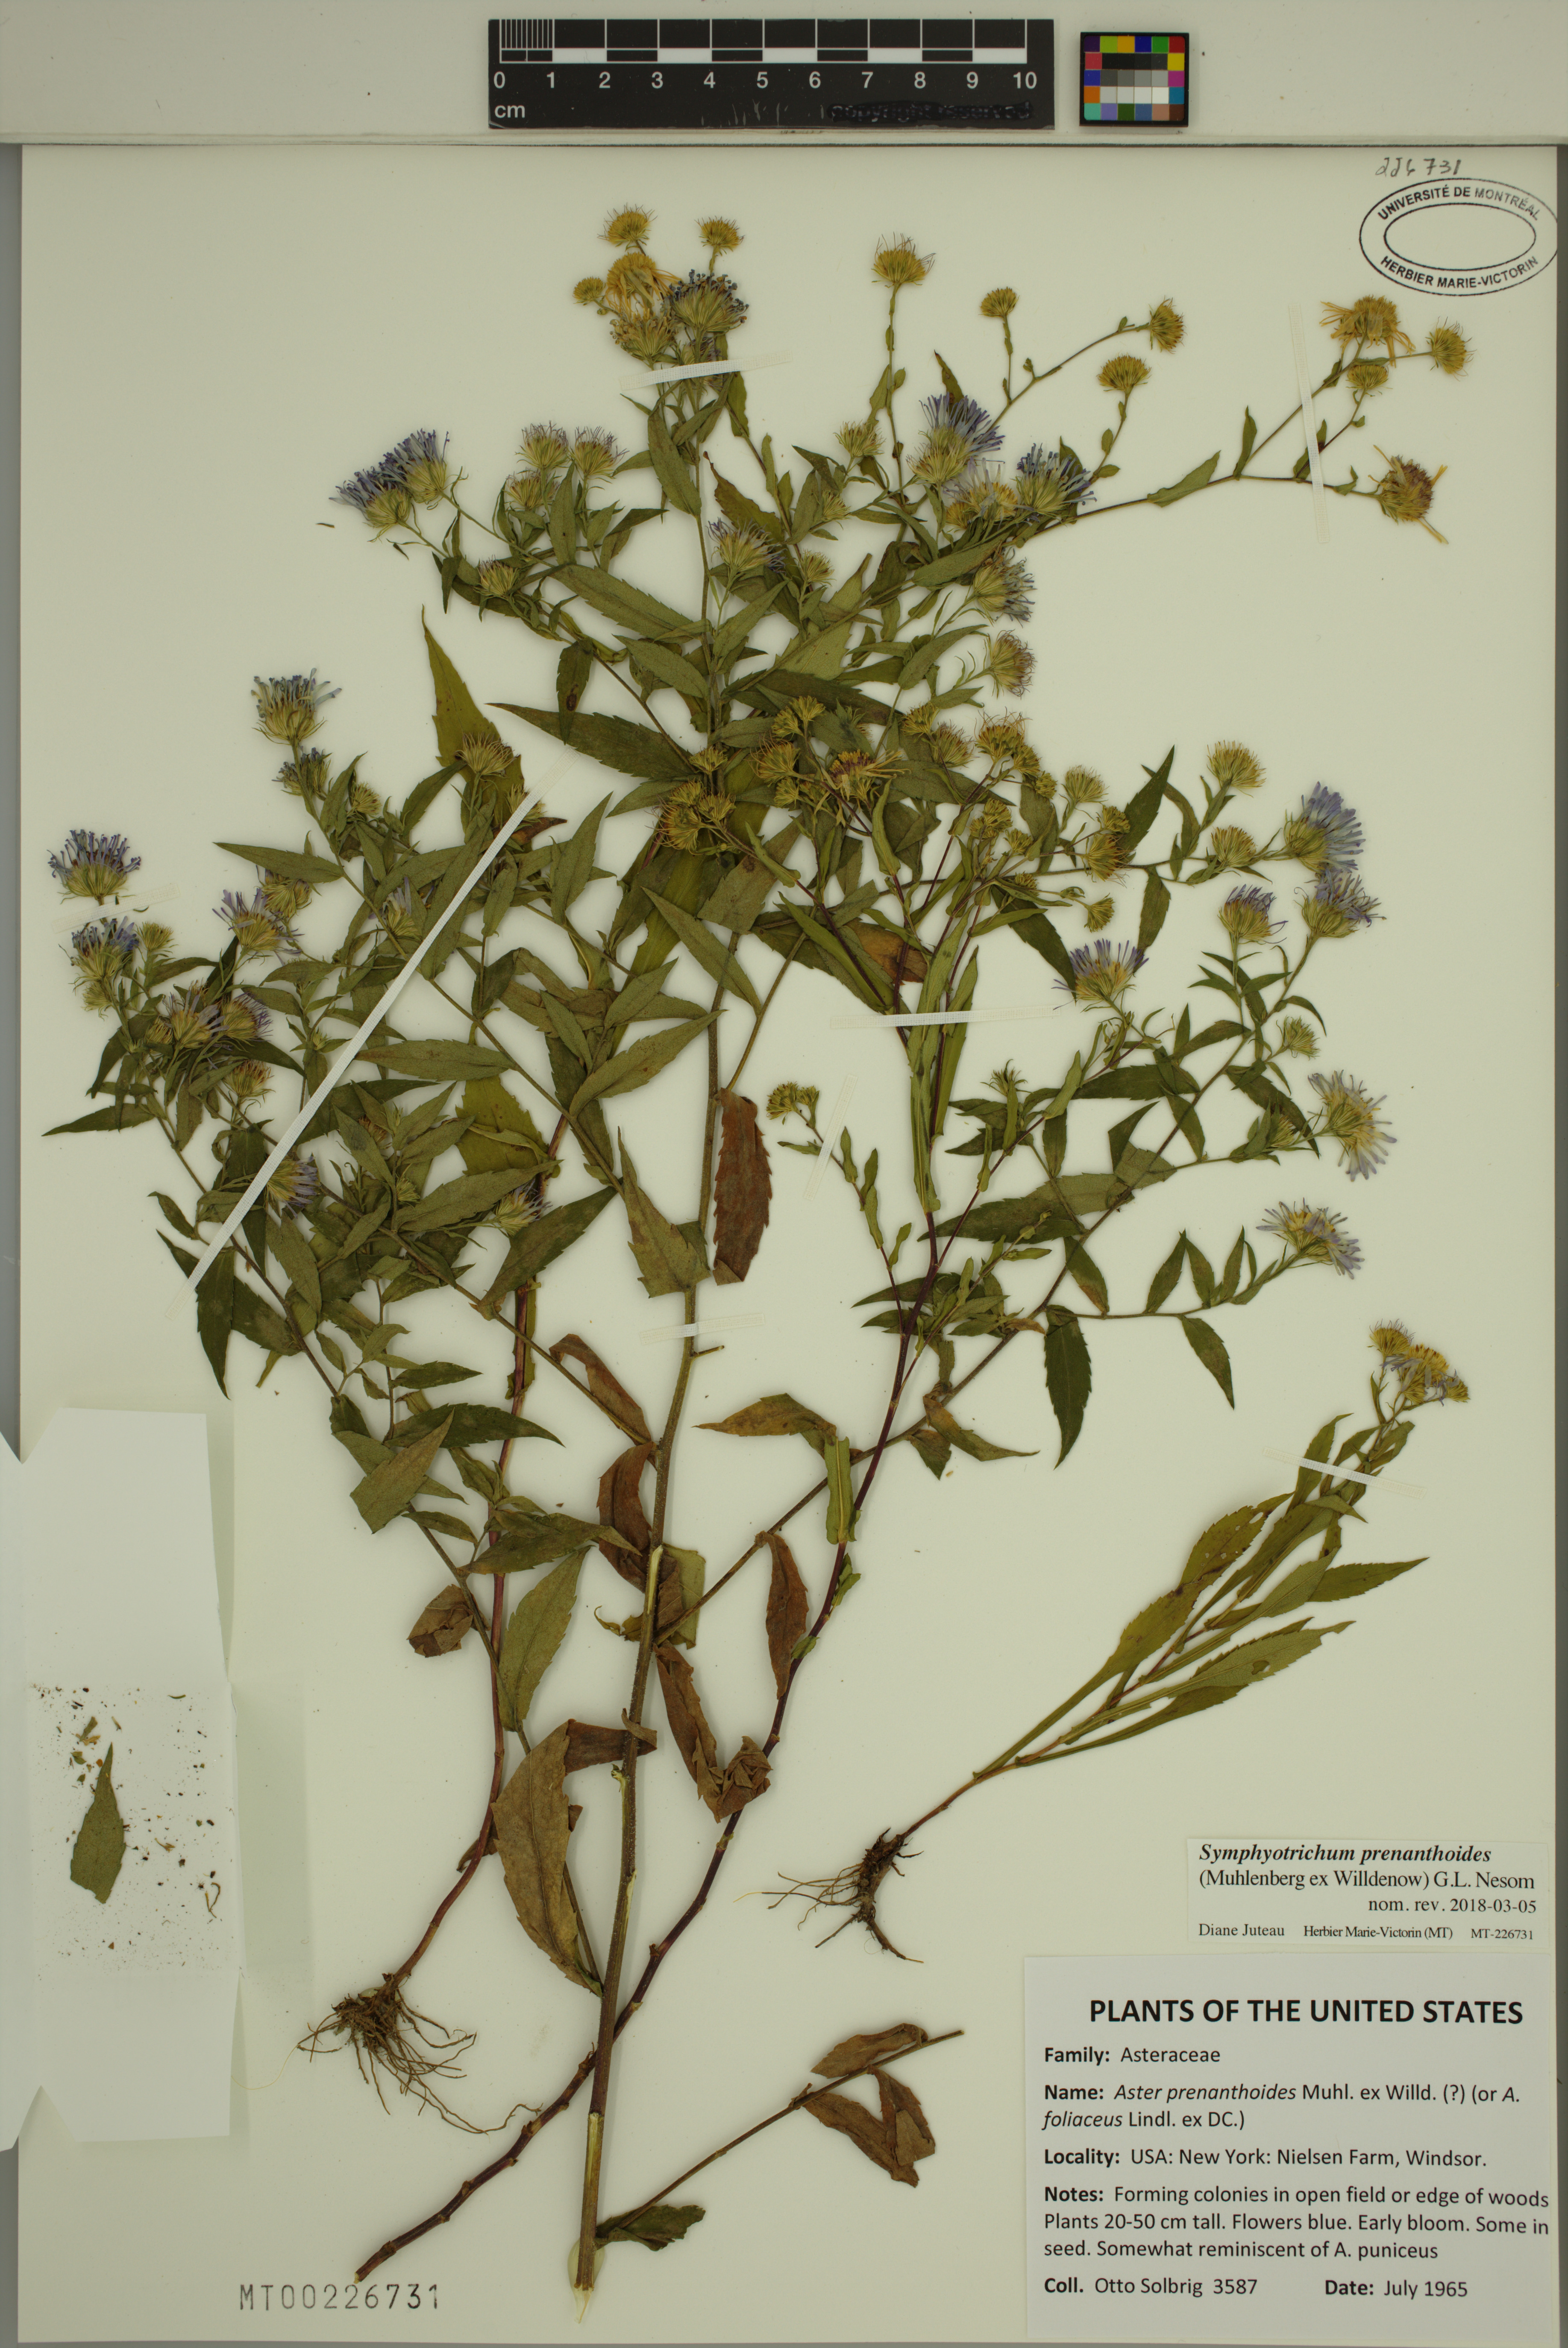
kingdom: Plantae
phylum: Tracheophyta
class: Magnoliopsida
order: Asterales
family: Asteraceae
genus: Symphyotrichum
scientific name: Symphyotrichum prenanthoides
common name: Crooked-stem aster
